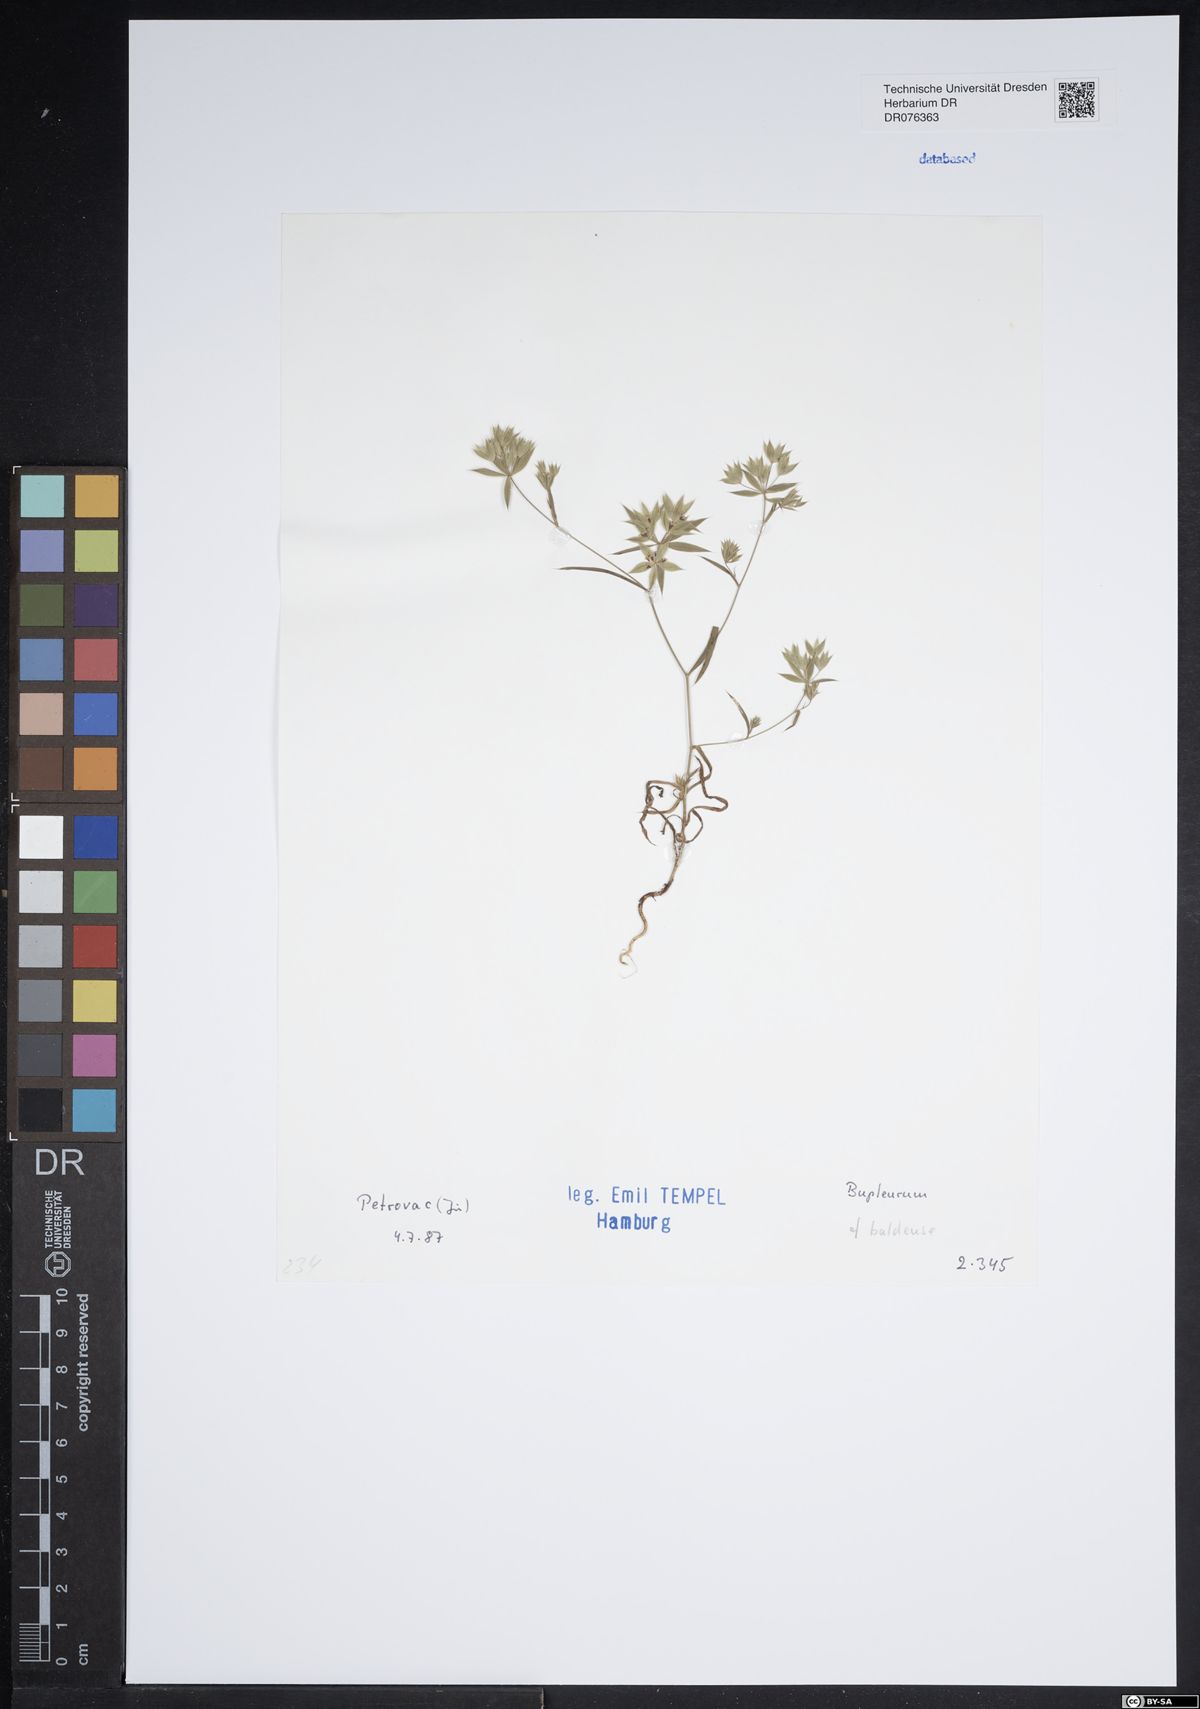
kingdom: Plantae
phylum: Tracheophyta
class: Magnoliopsida
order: Apiales
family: Apiaceae
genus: Bupleurum
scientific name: Bupleurum baldense
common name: Small hare's-ear
